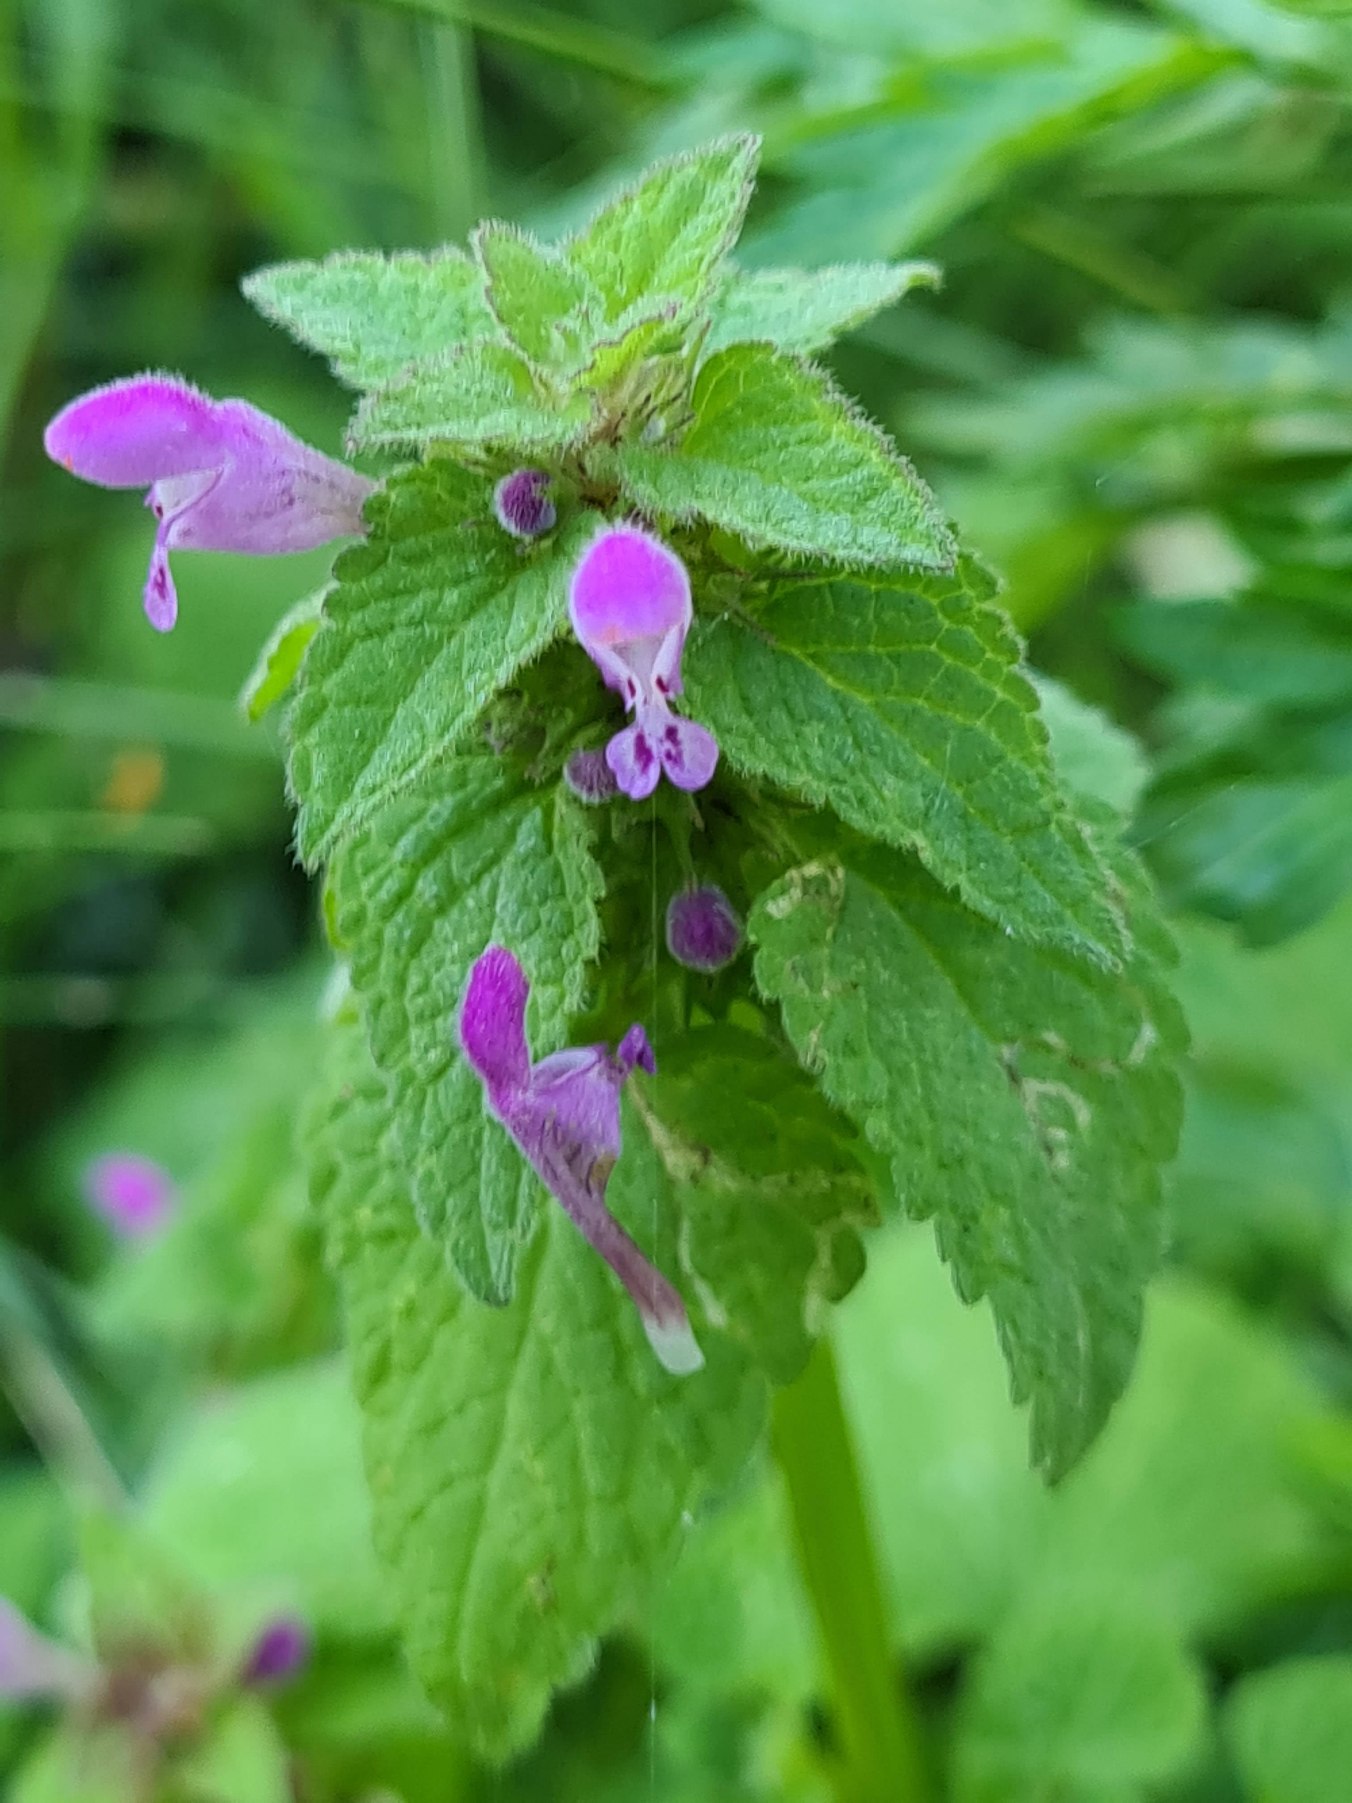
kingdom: Plantae
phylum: Tracheophyta
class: Magnoliopsida
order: Lamiales
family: Lamiaceae
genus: Lamium
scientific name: Lamium purpureum
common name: Rød tvetand
